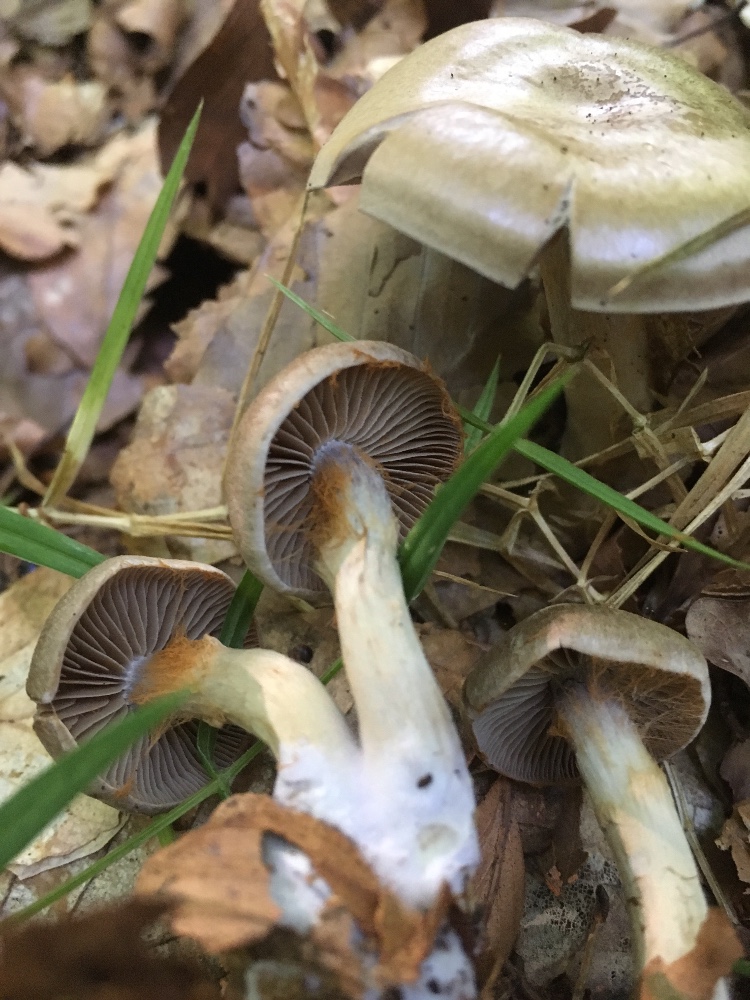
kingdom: Fungi
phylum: Basidiomycota
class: Agaricomycetes
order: Agaricales
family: Cortinariaceae
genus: Cortinarius
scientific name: Cortinarius anomalus
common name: Variable webcap
